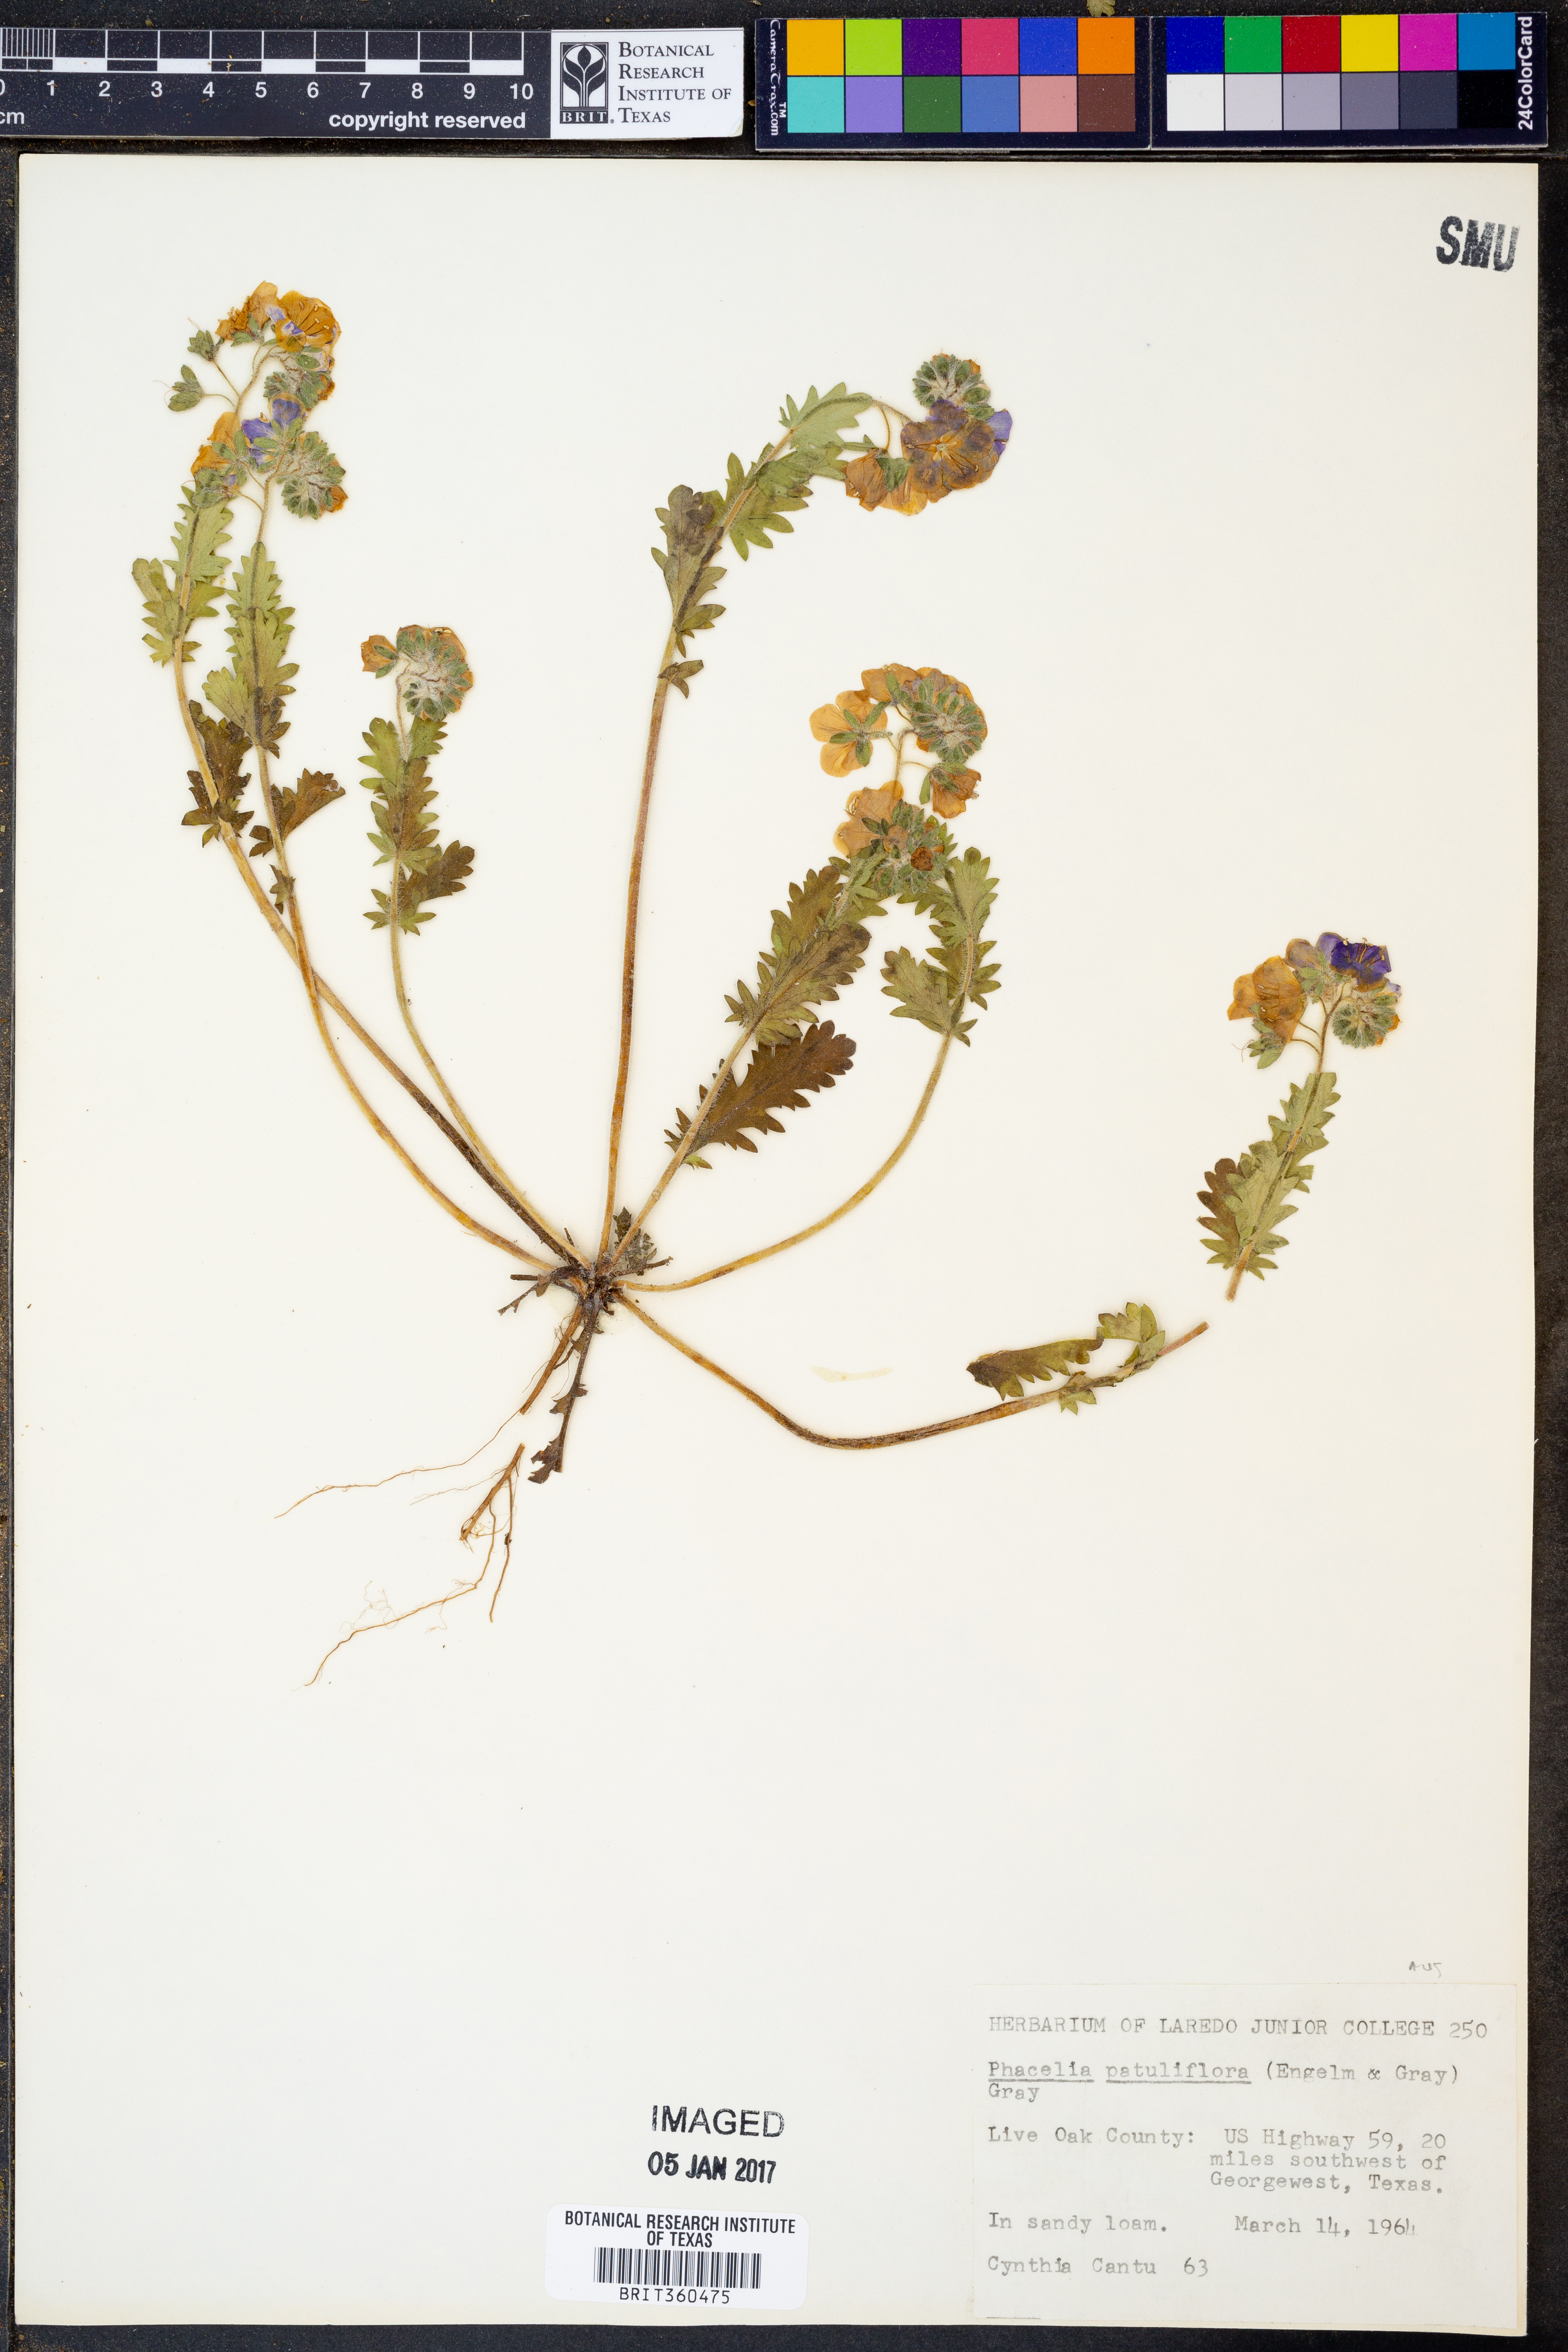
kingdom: Plantae
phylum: Tracheophyta
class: Magnoliopsida
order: Boraginales
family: Hydrophyllaceae
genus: Phacelia
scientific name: Phacelia patuliflora
